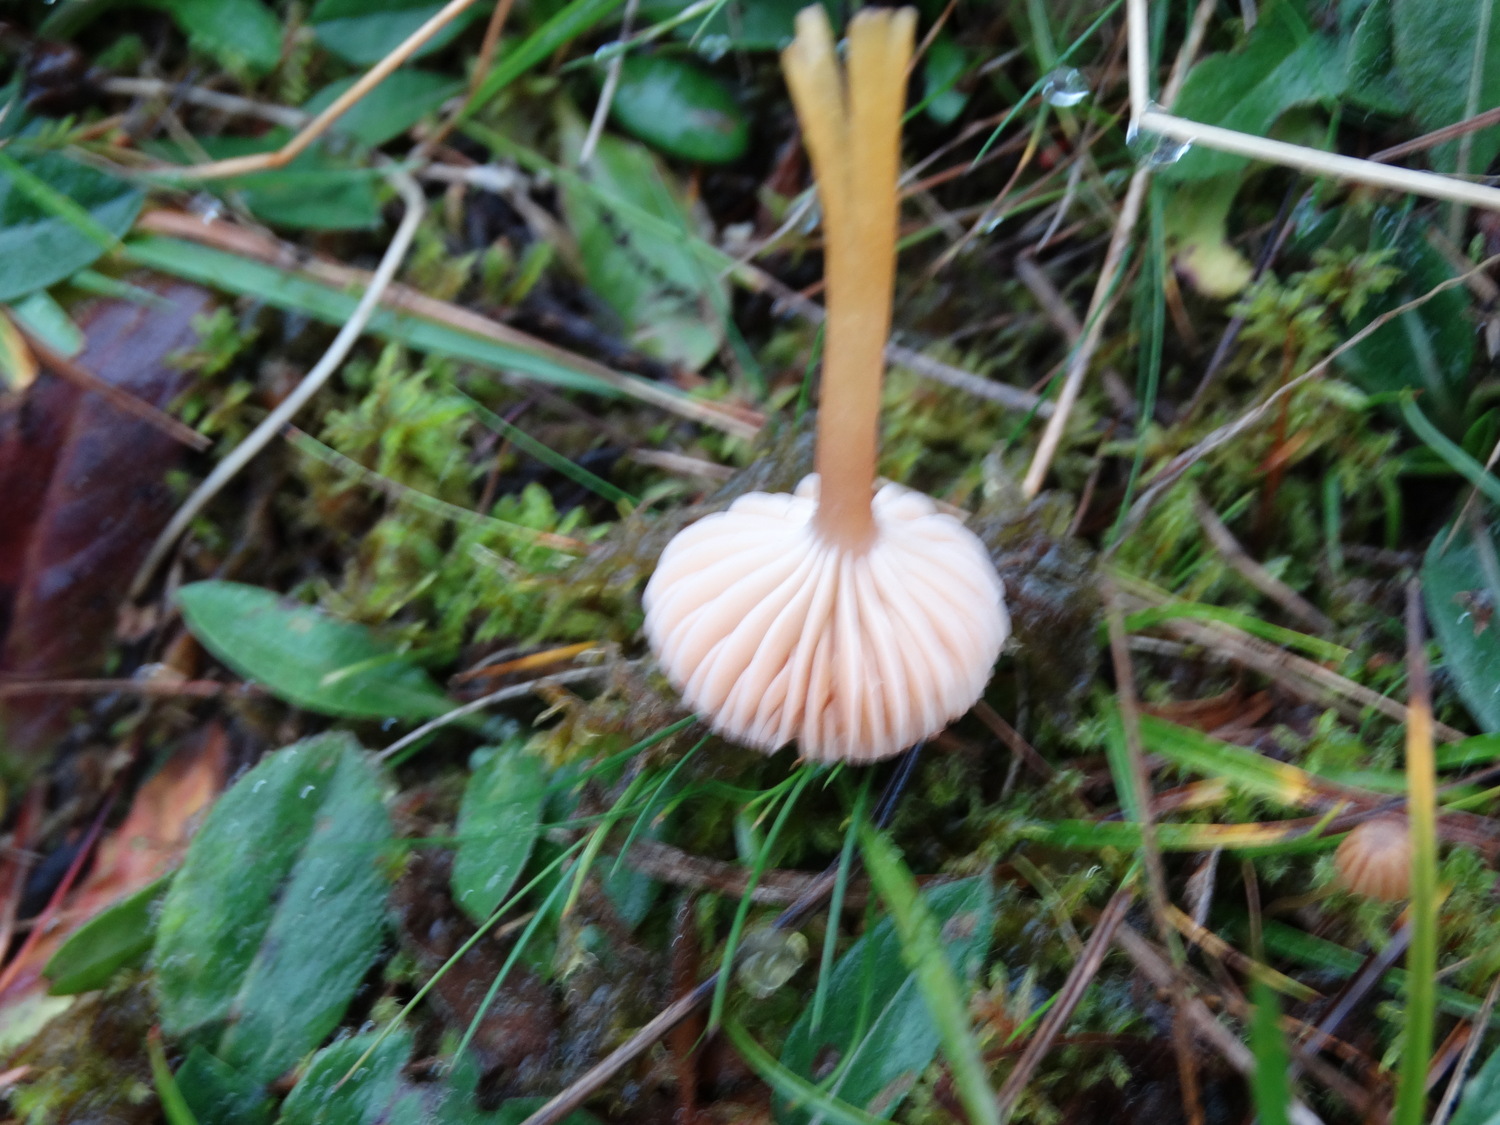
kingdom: Fungi
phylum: Basidiomycota
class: Agaricomycetes
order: Agaricales
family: Hygrophoraceae
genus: Gliophorus
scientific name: Gliophorus laetus
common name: brusk-vokshat
